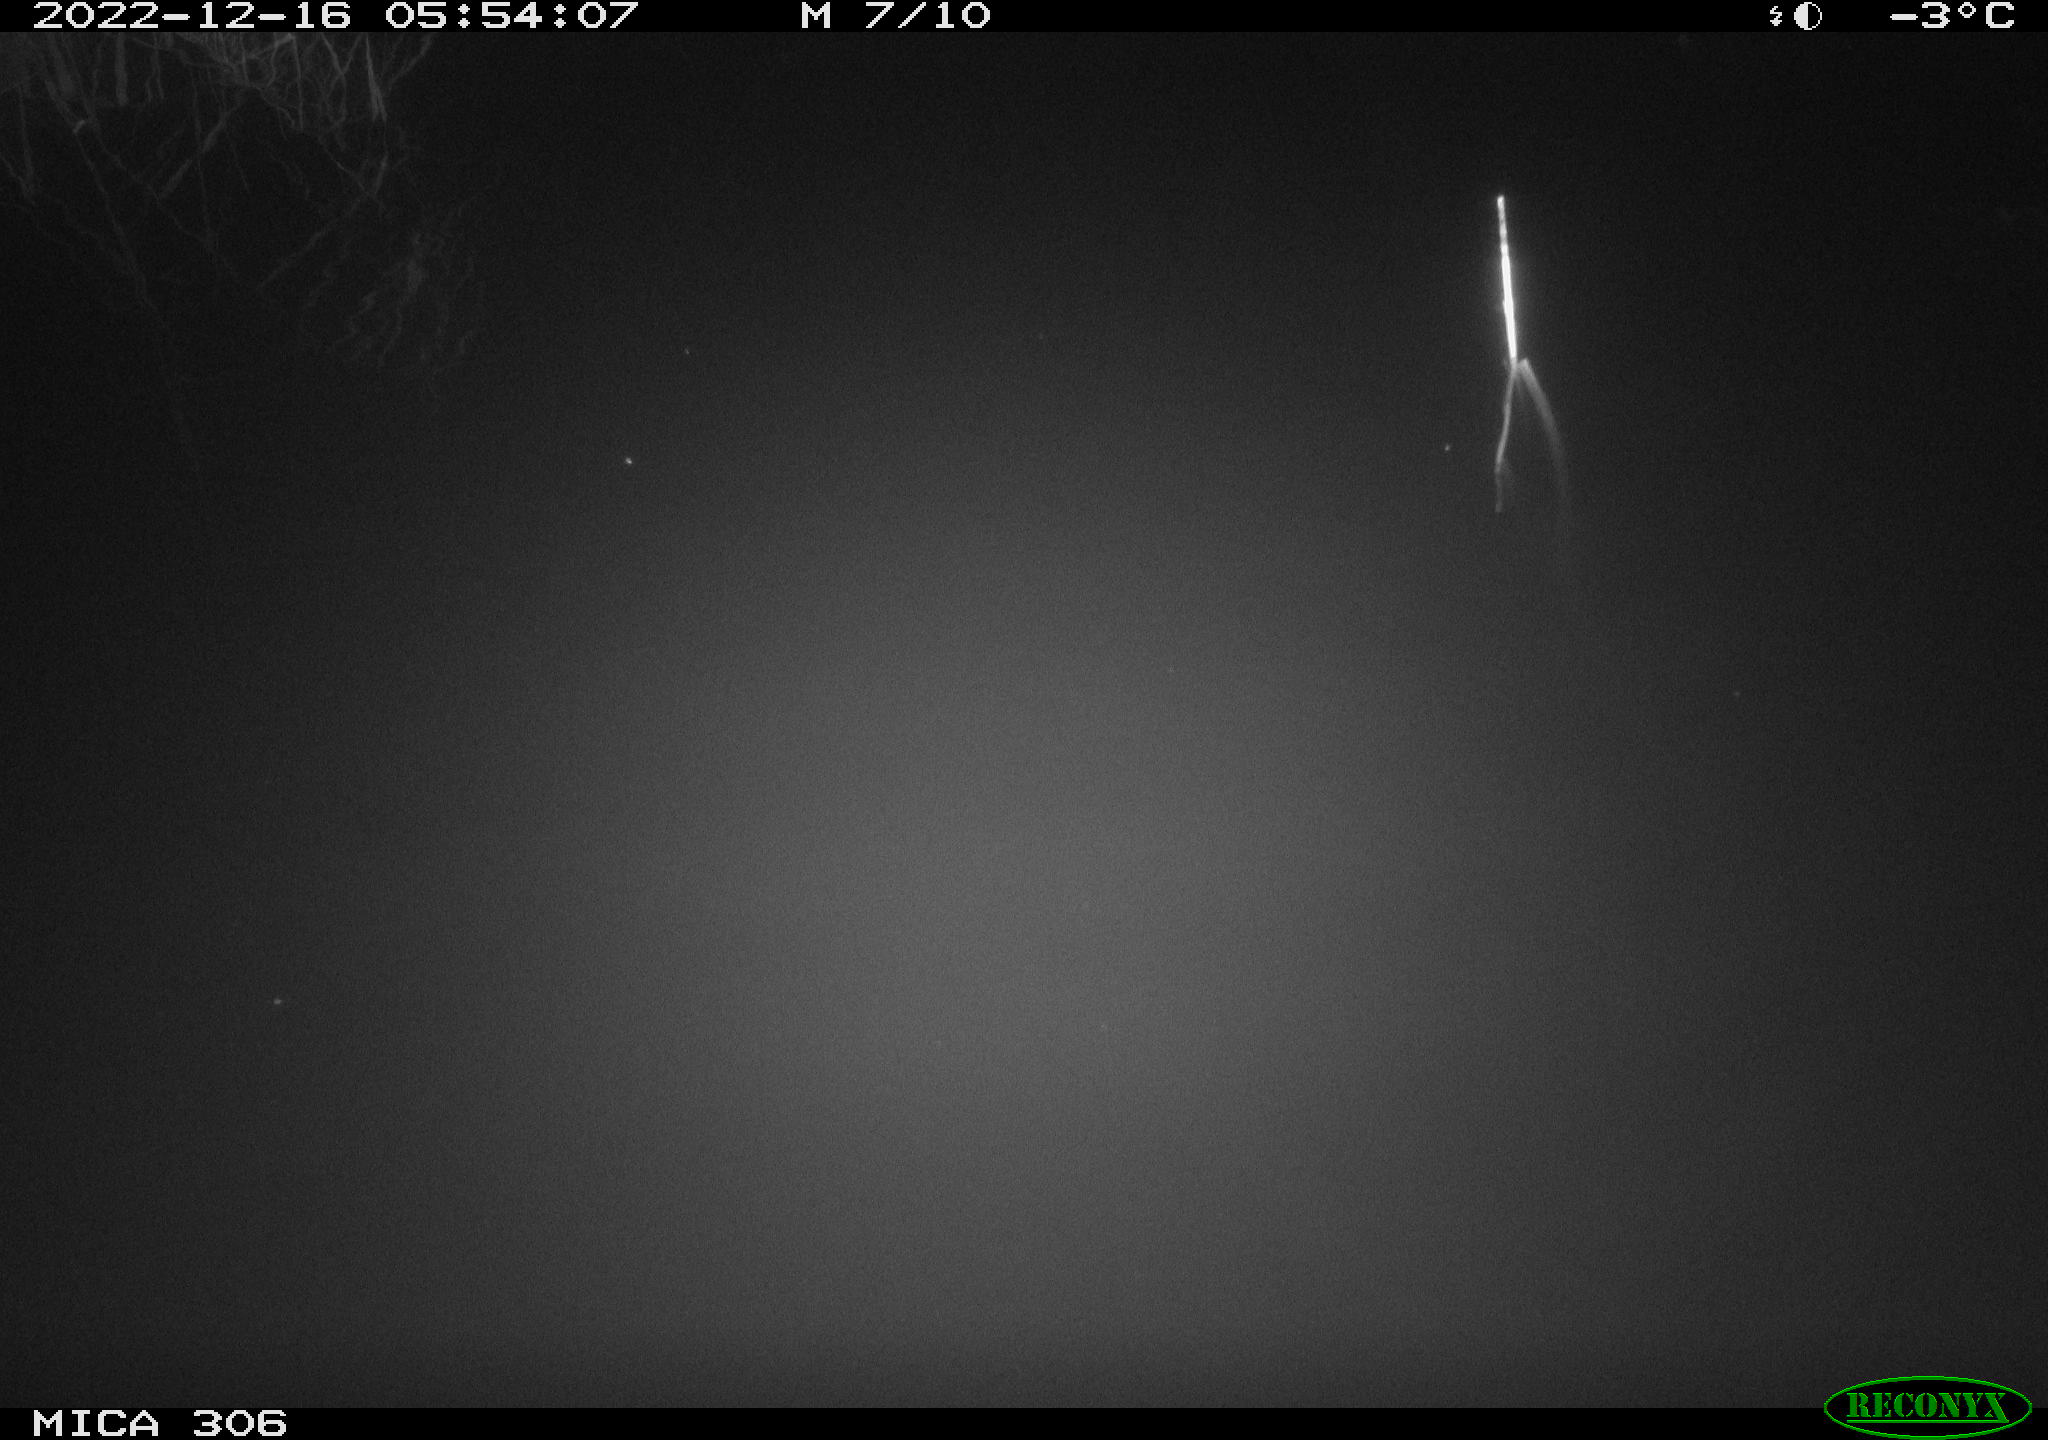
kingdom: Animalia
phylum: Chordata
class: Mammalia
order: Rodentia
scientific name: Rodentia
